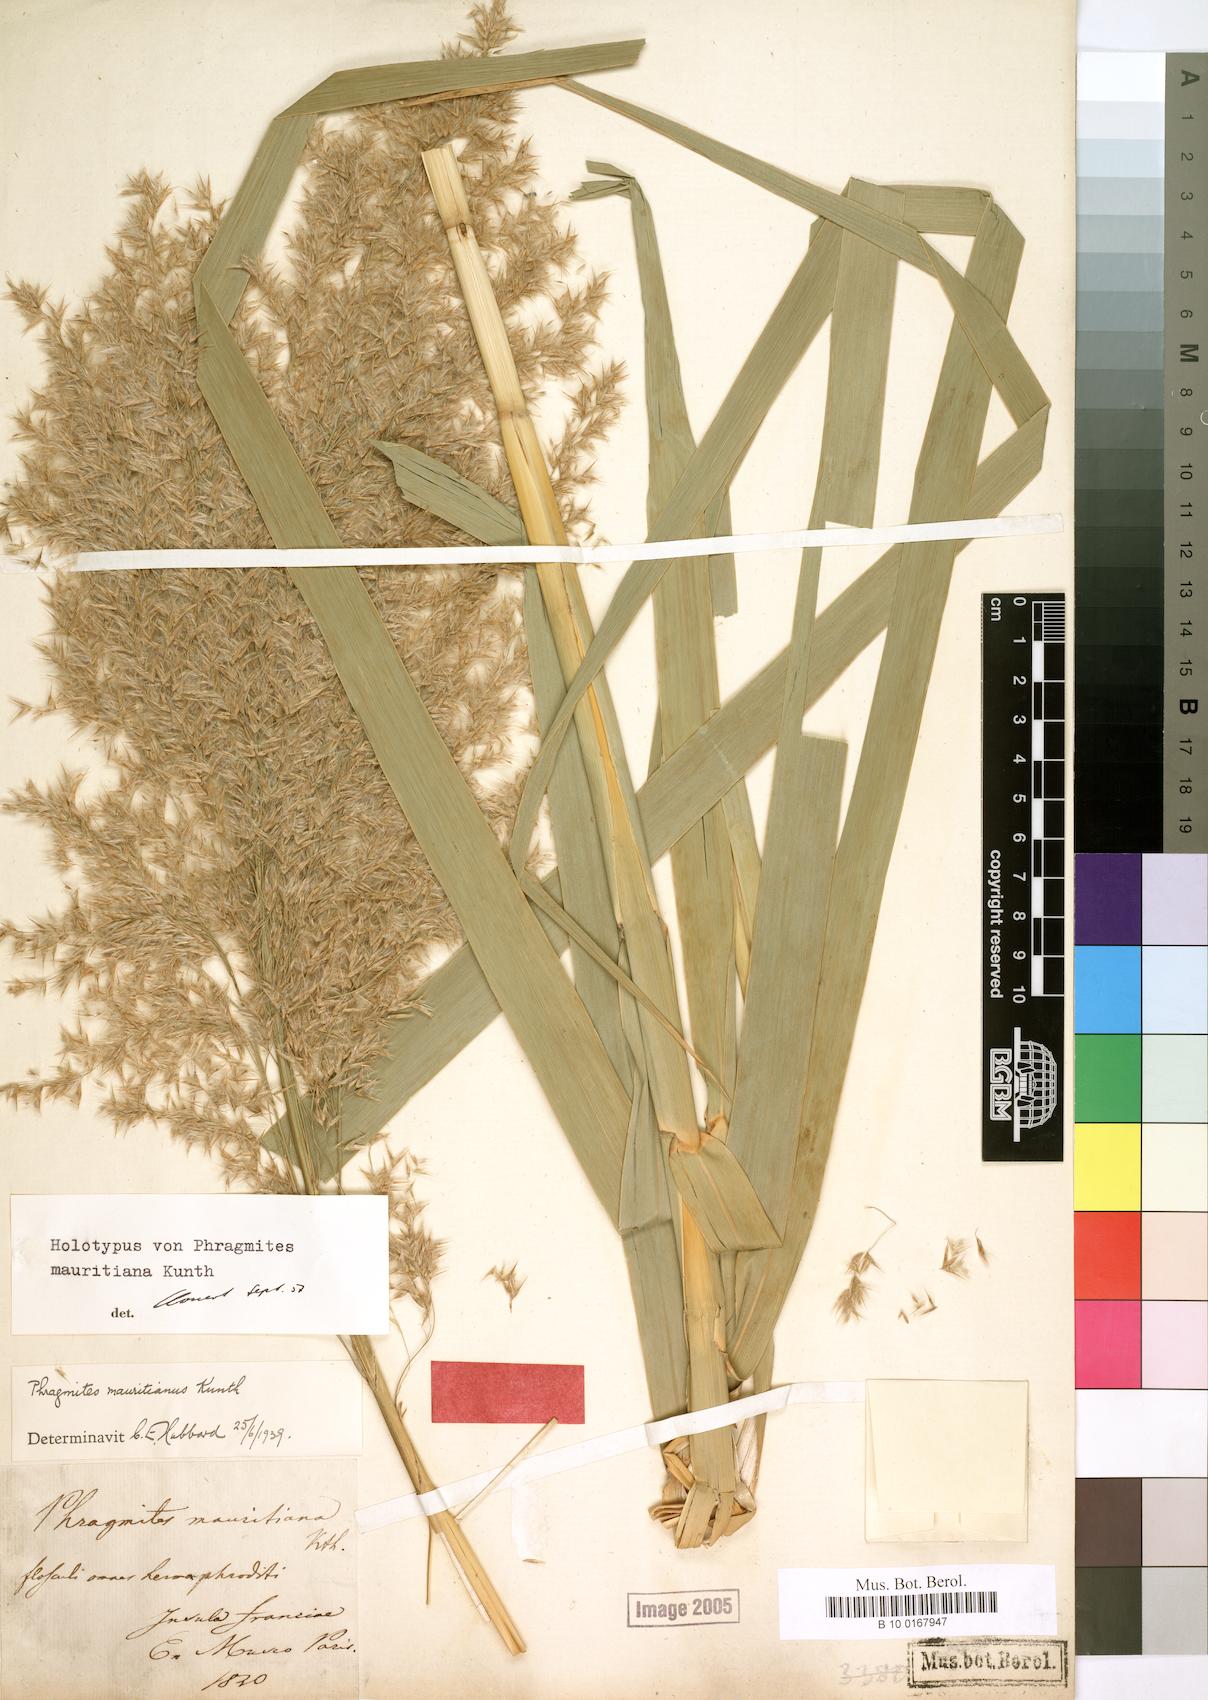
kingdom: Plantae
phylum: Tracheophyta
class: Liliopsida
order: Poales
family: Poaceae
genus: Phragmites
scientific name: Phragmites mauritianus
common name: Reed grass
